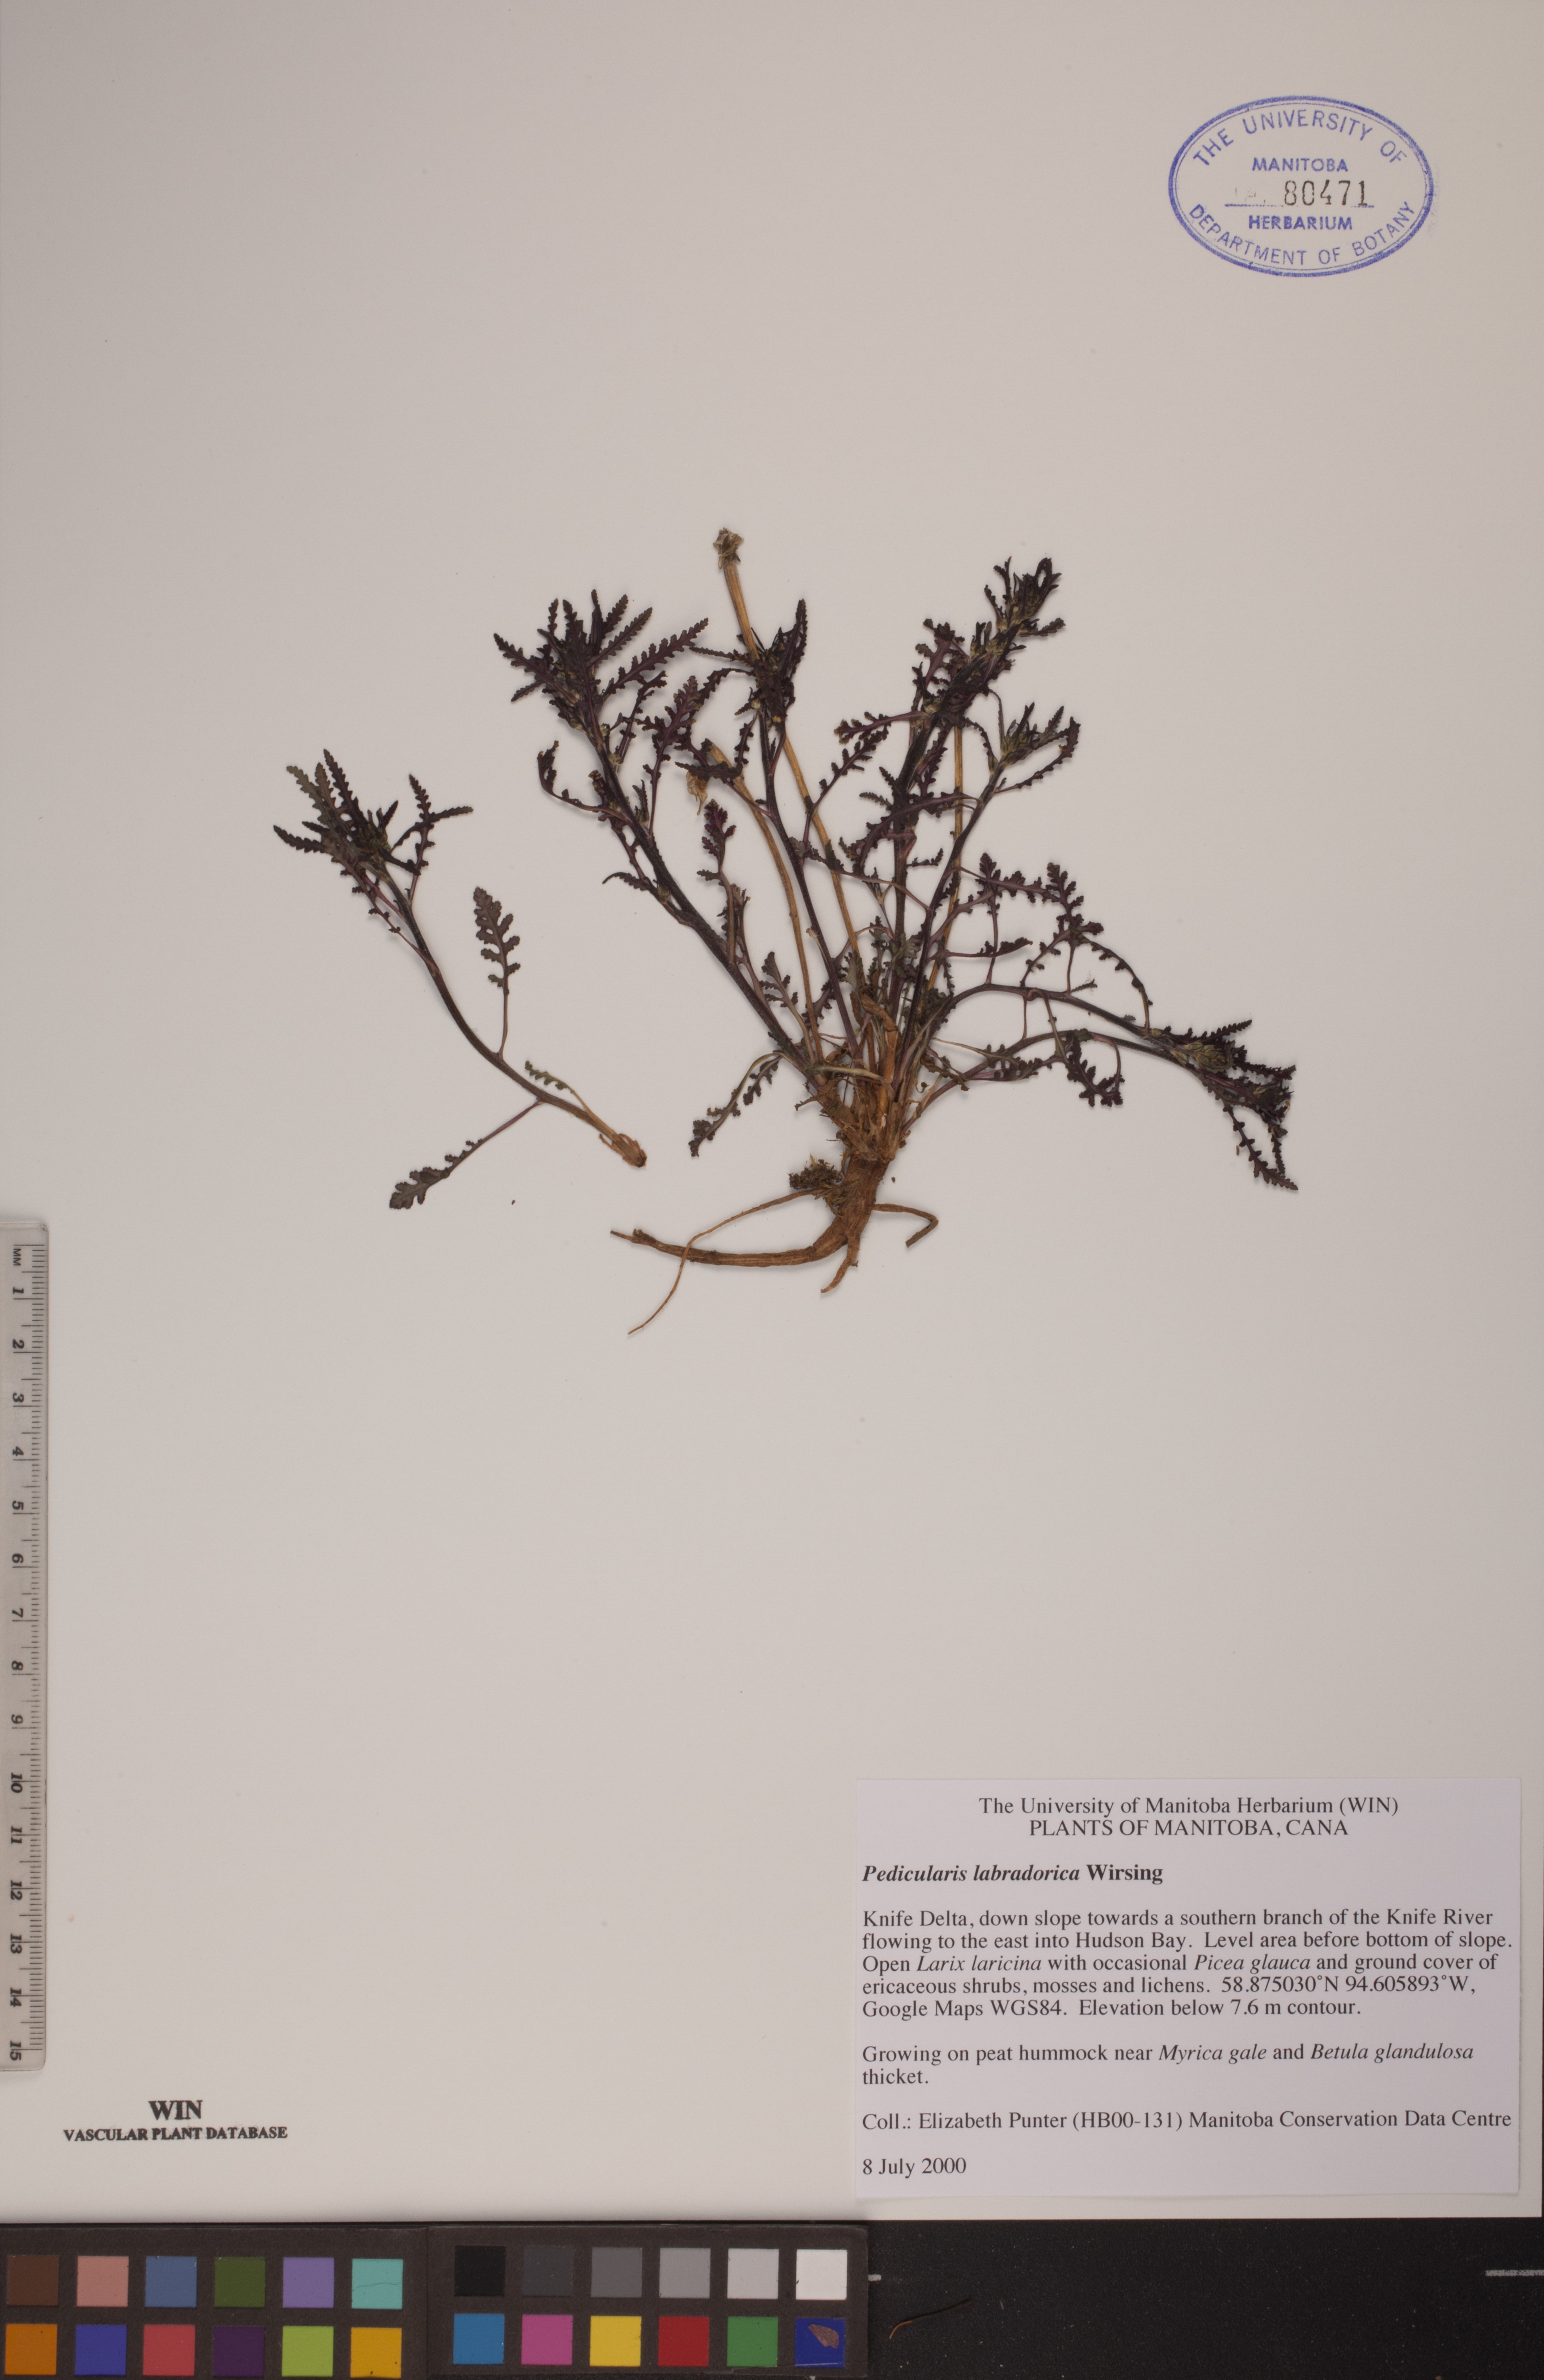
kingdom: Plantae
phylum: Tracheophyta
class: Magnoliopsida
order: Lamiales
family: Orobanchaceae
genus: Pedicularis
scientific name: Pedicularis labradorica
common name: Labrador lousewort
